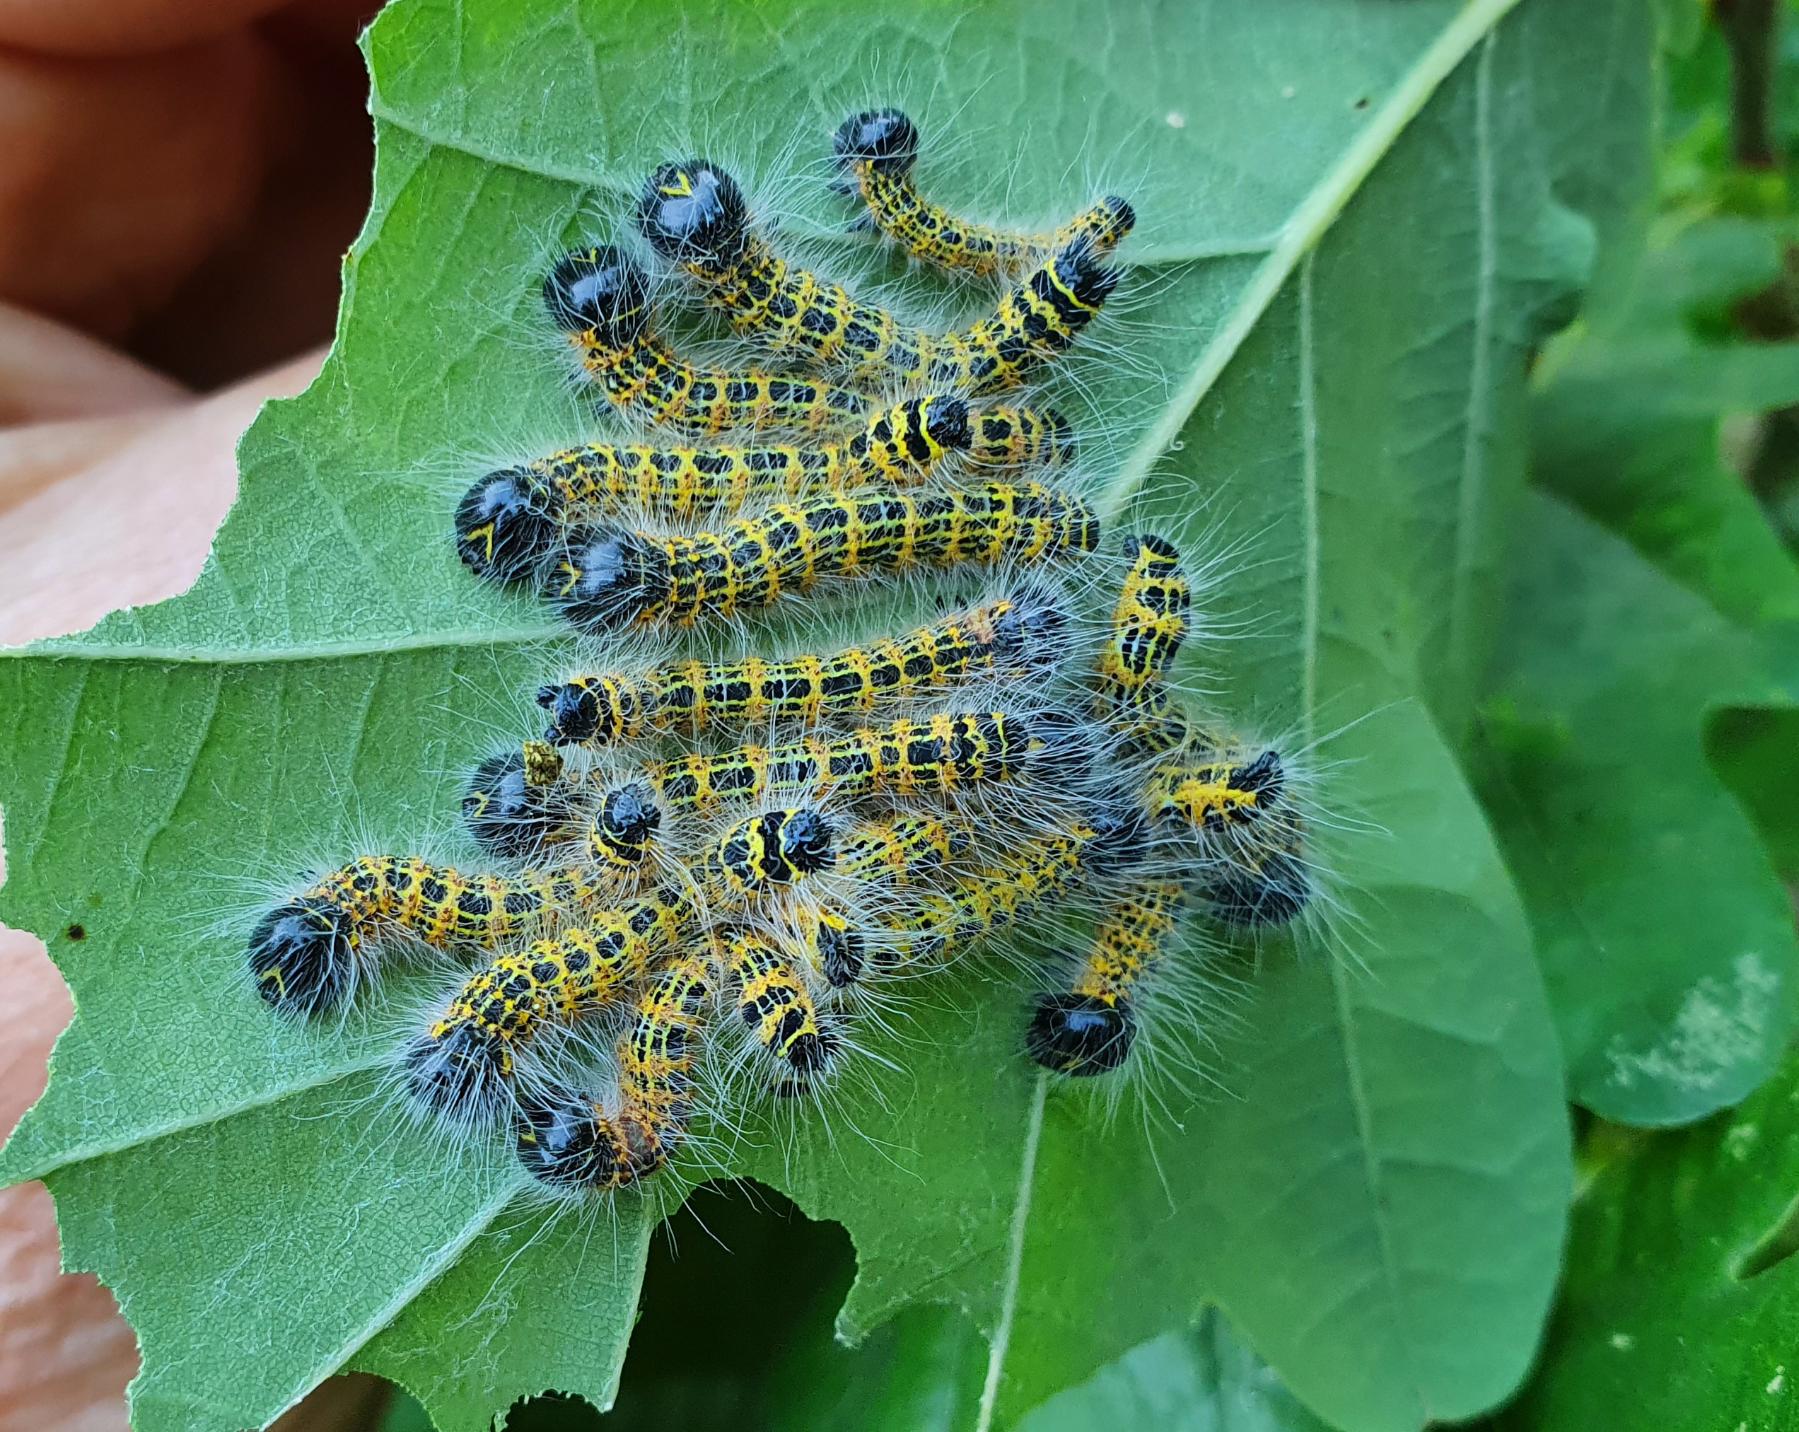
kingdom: Animalia
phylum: Arthropoda
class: Insecta
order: Lepidoptera
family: Notodontidae
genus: Phalera
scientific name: Phalera bucephala
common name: Måneplet
